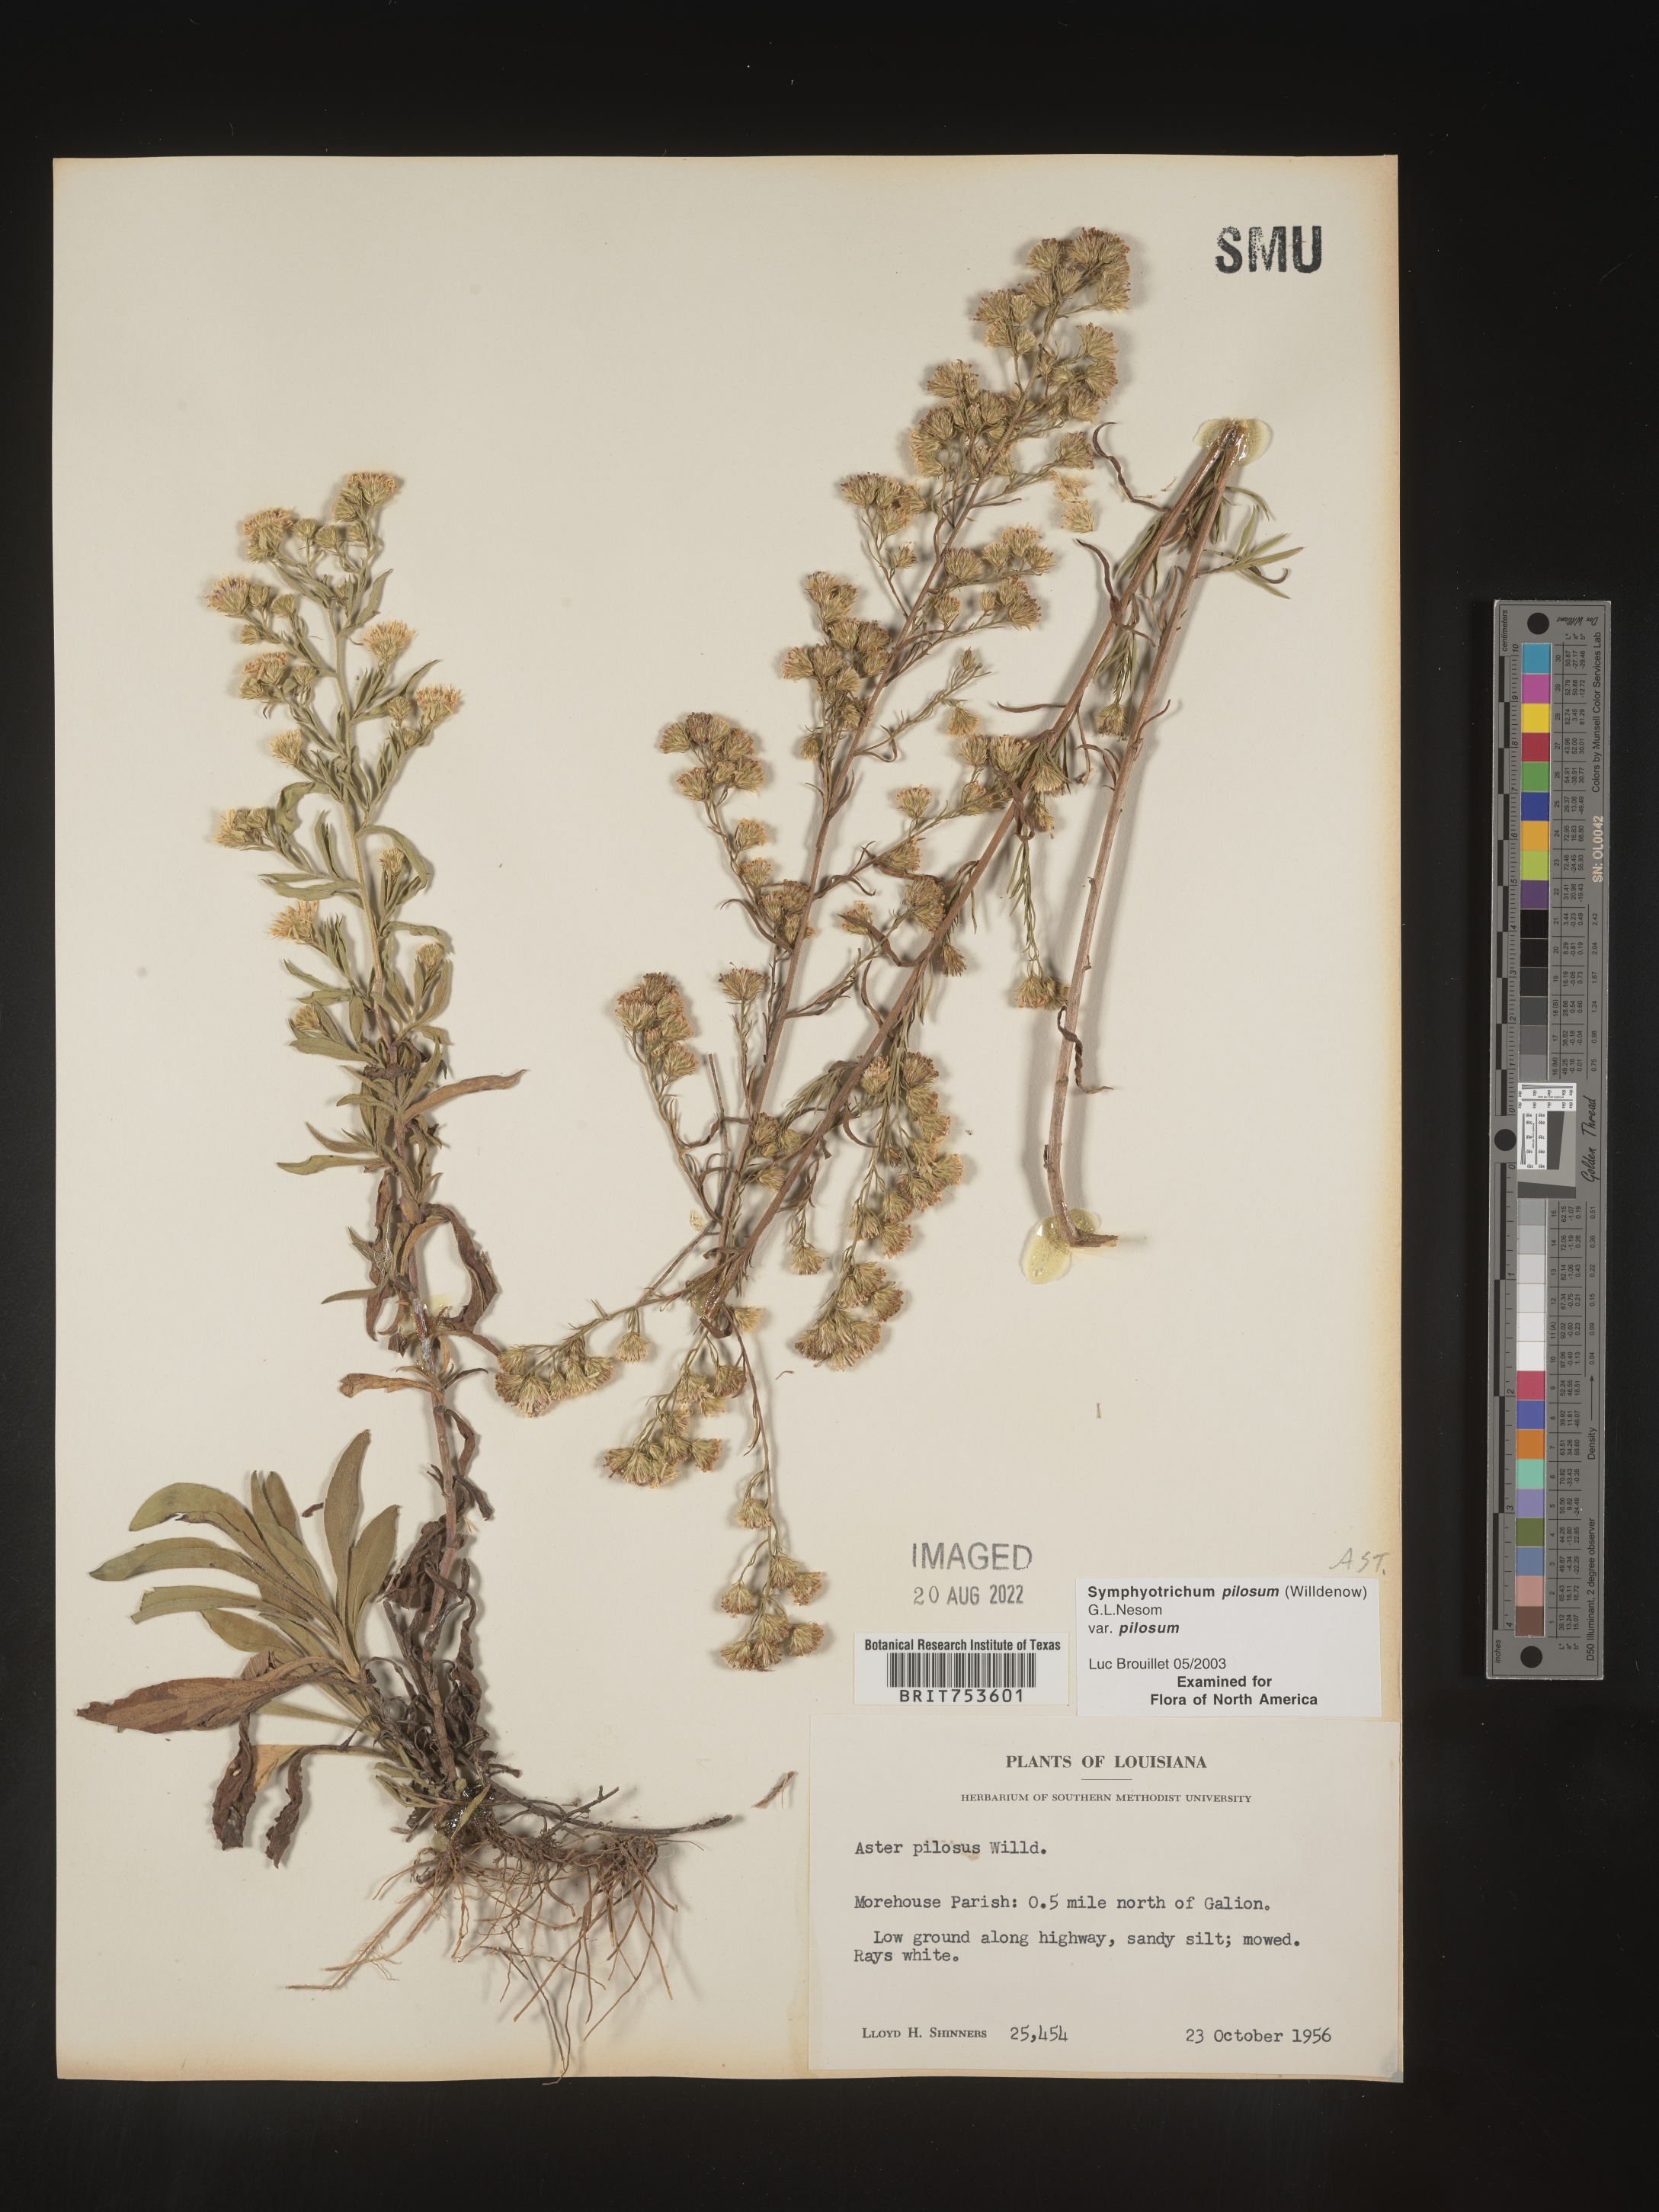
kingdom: Plantae
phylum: Tracheophyta
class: Magnoliopsida
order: Asterales
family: Asteraceae
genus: Symphyotrichum
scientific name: Symphyotrichum pilosum
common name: Awl aster
